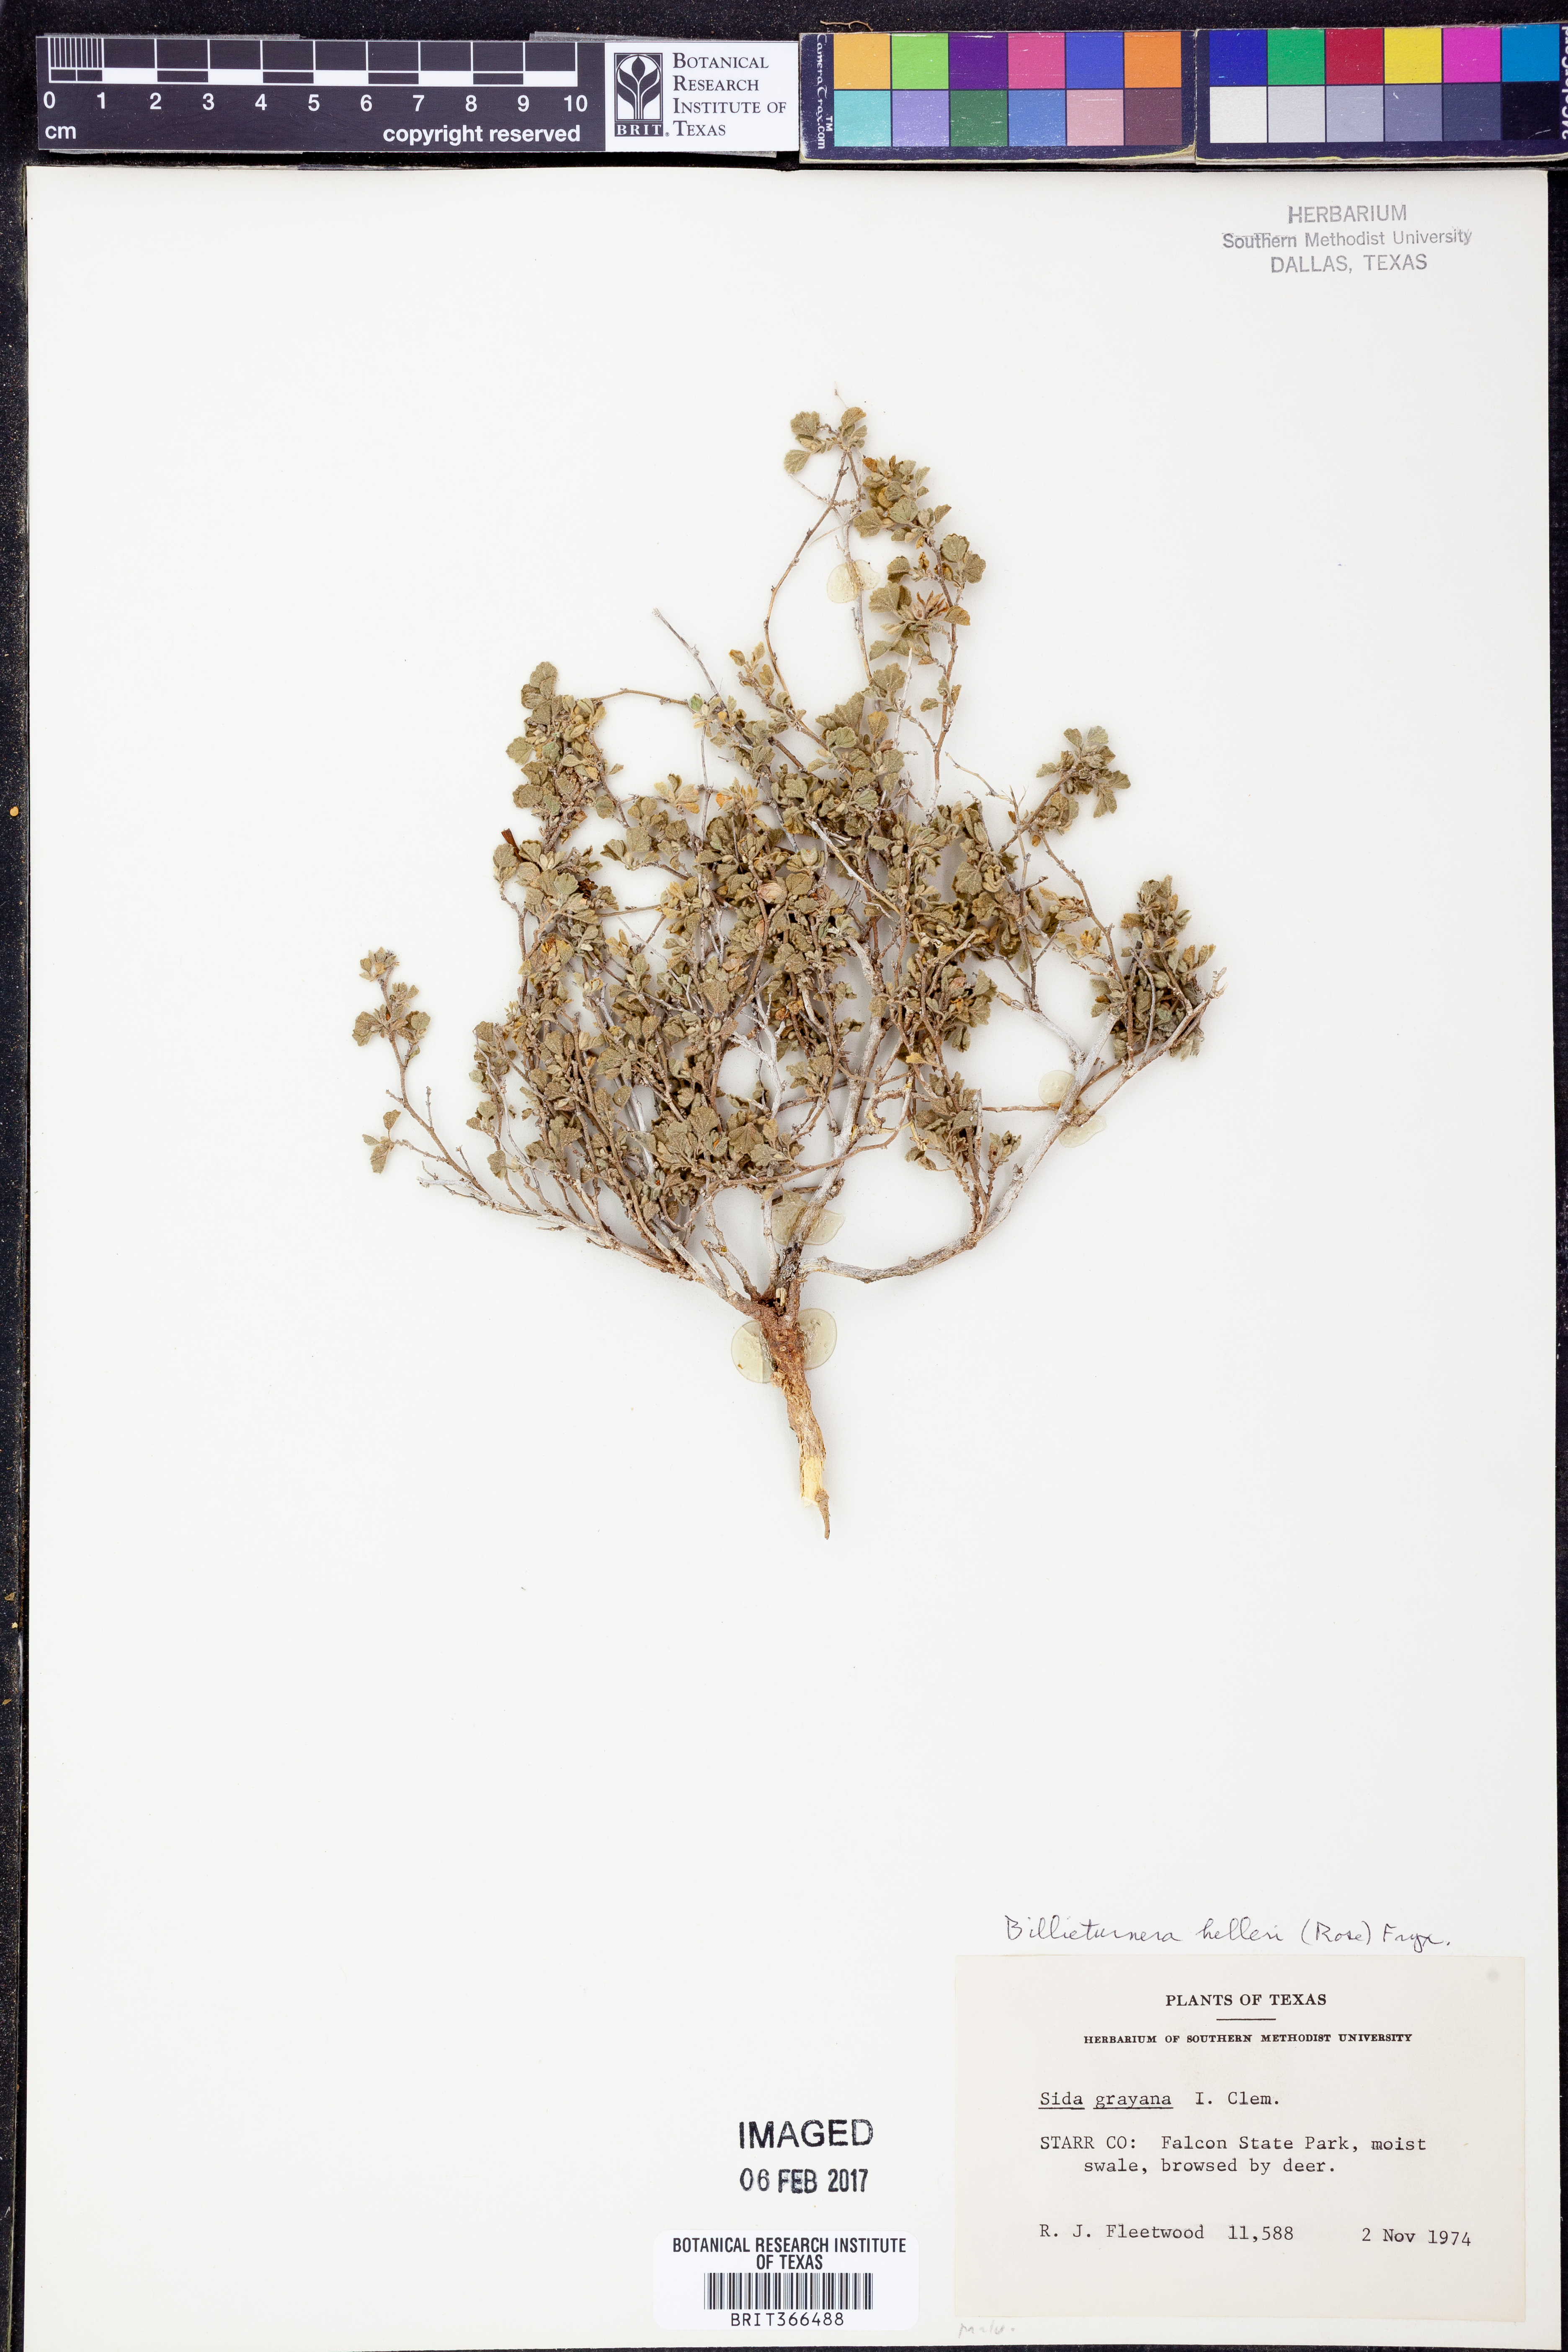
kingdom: Plantae
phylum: Tracheophyta
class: Magnoliopsida
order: Malvales
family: Malvaceae
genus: Billieturnera
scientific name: Billieturnera helleri
